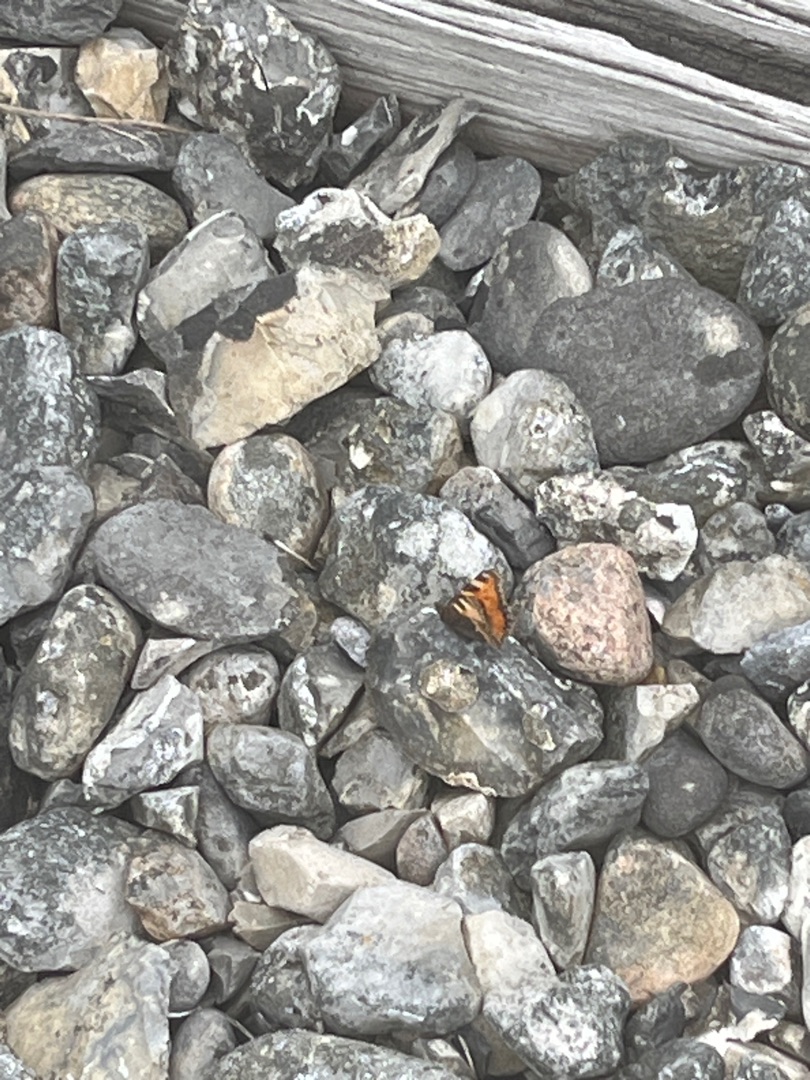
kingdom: Animalia
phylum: Arthropoda
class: Insecta
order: Lepidoptera
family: Nymphalidae
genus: Aglais
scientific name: Aglais urticae
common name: Nældens takvinge
